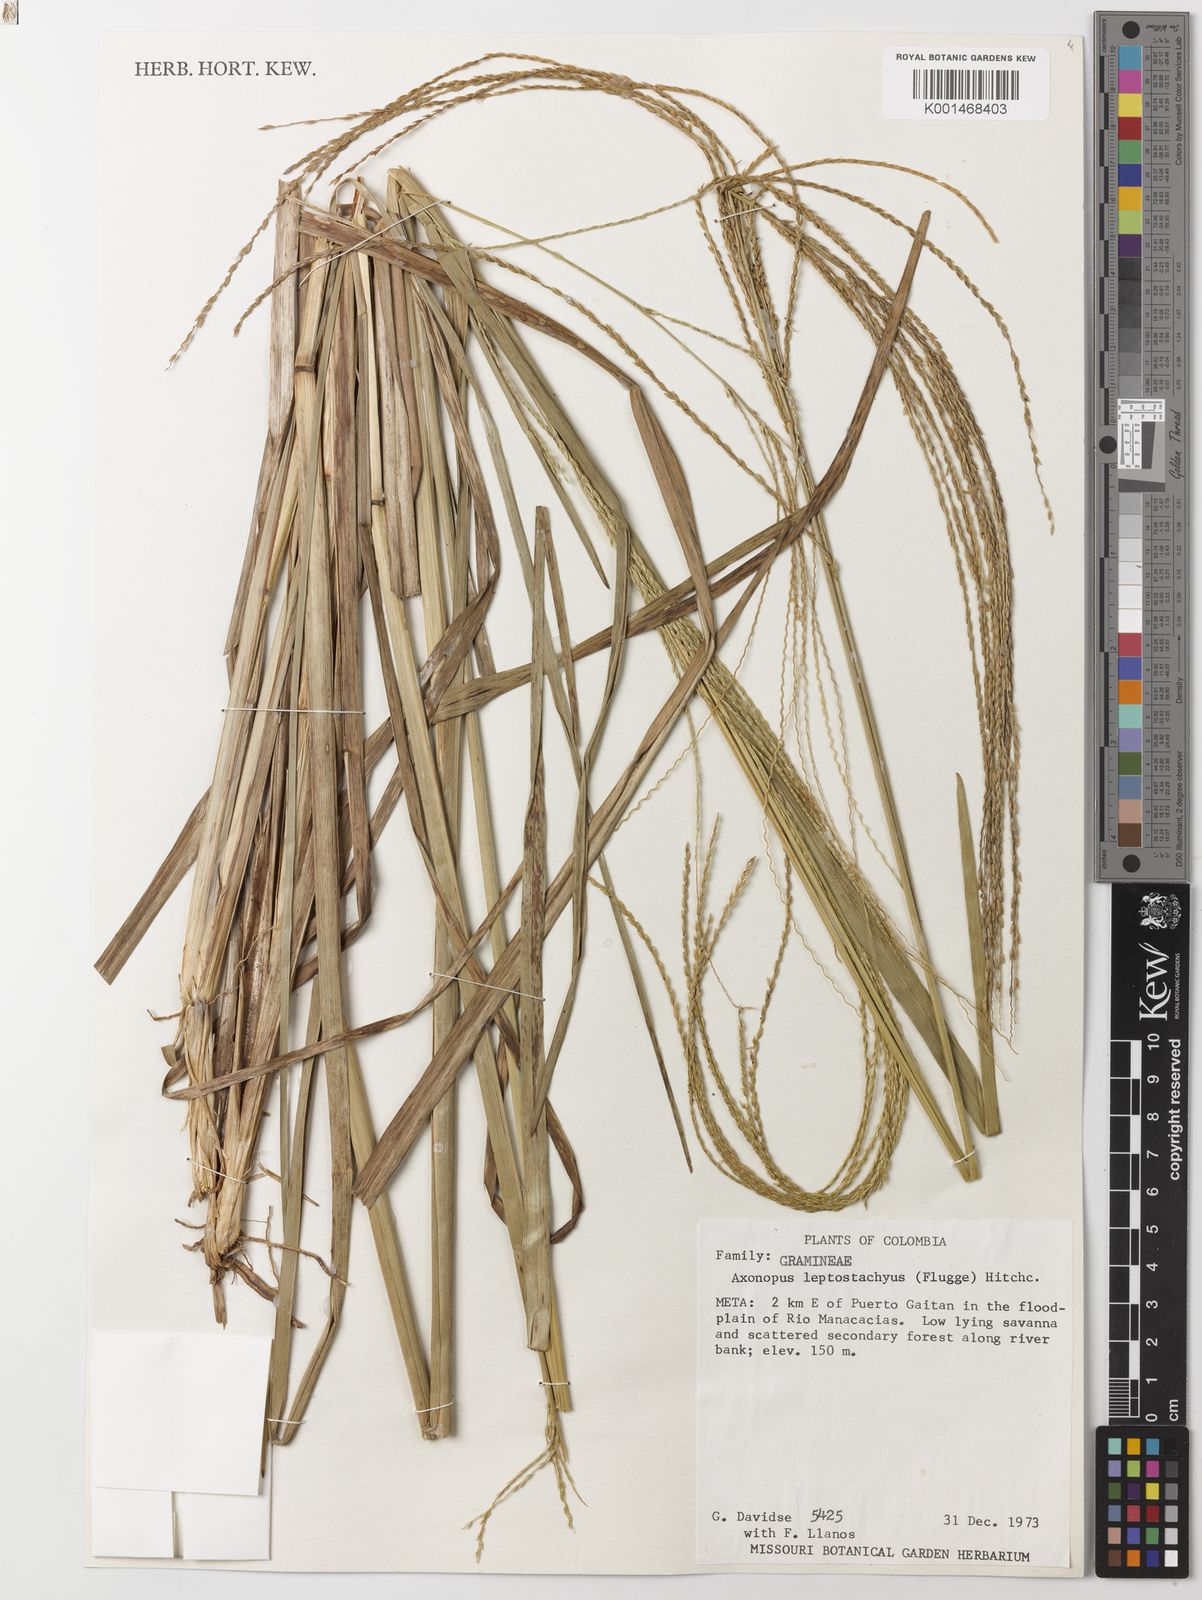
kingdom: Plantae
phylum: Tracheophyta
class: Liliopsida
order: Poales
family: Poaceae
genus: Axonopus
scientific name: Axonopus
